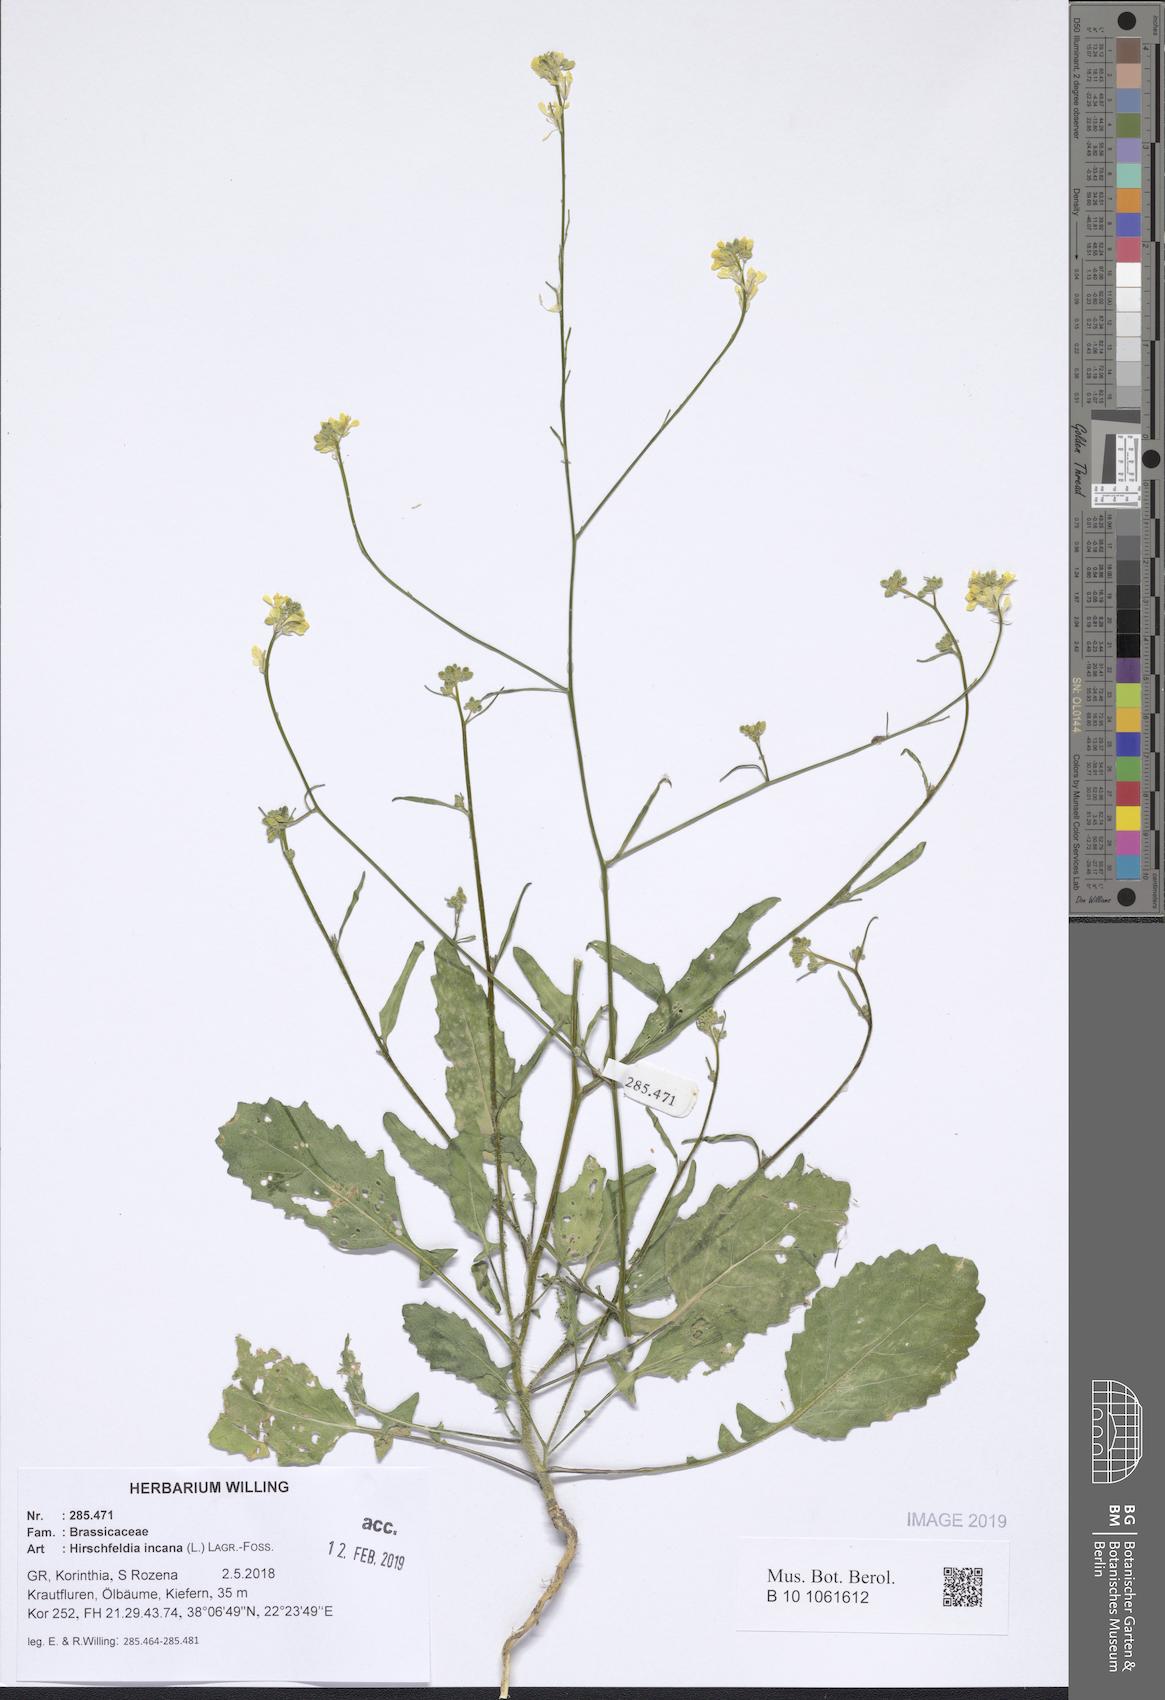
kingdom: Plantae
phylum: Tracheophyta
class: Magnoliopsida
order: Brassicales
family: Brassicaceae
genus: Hirschfeldia
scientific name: Hirschfeldia incana
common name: Hoary mustard
